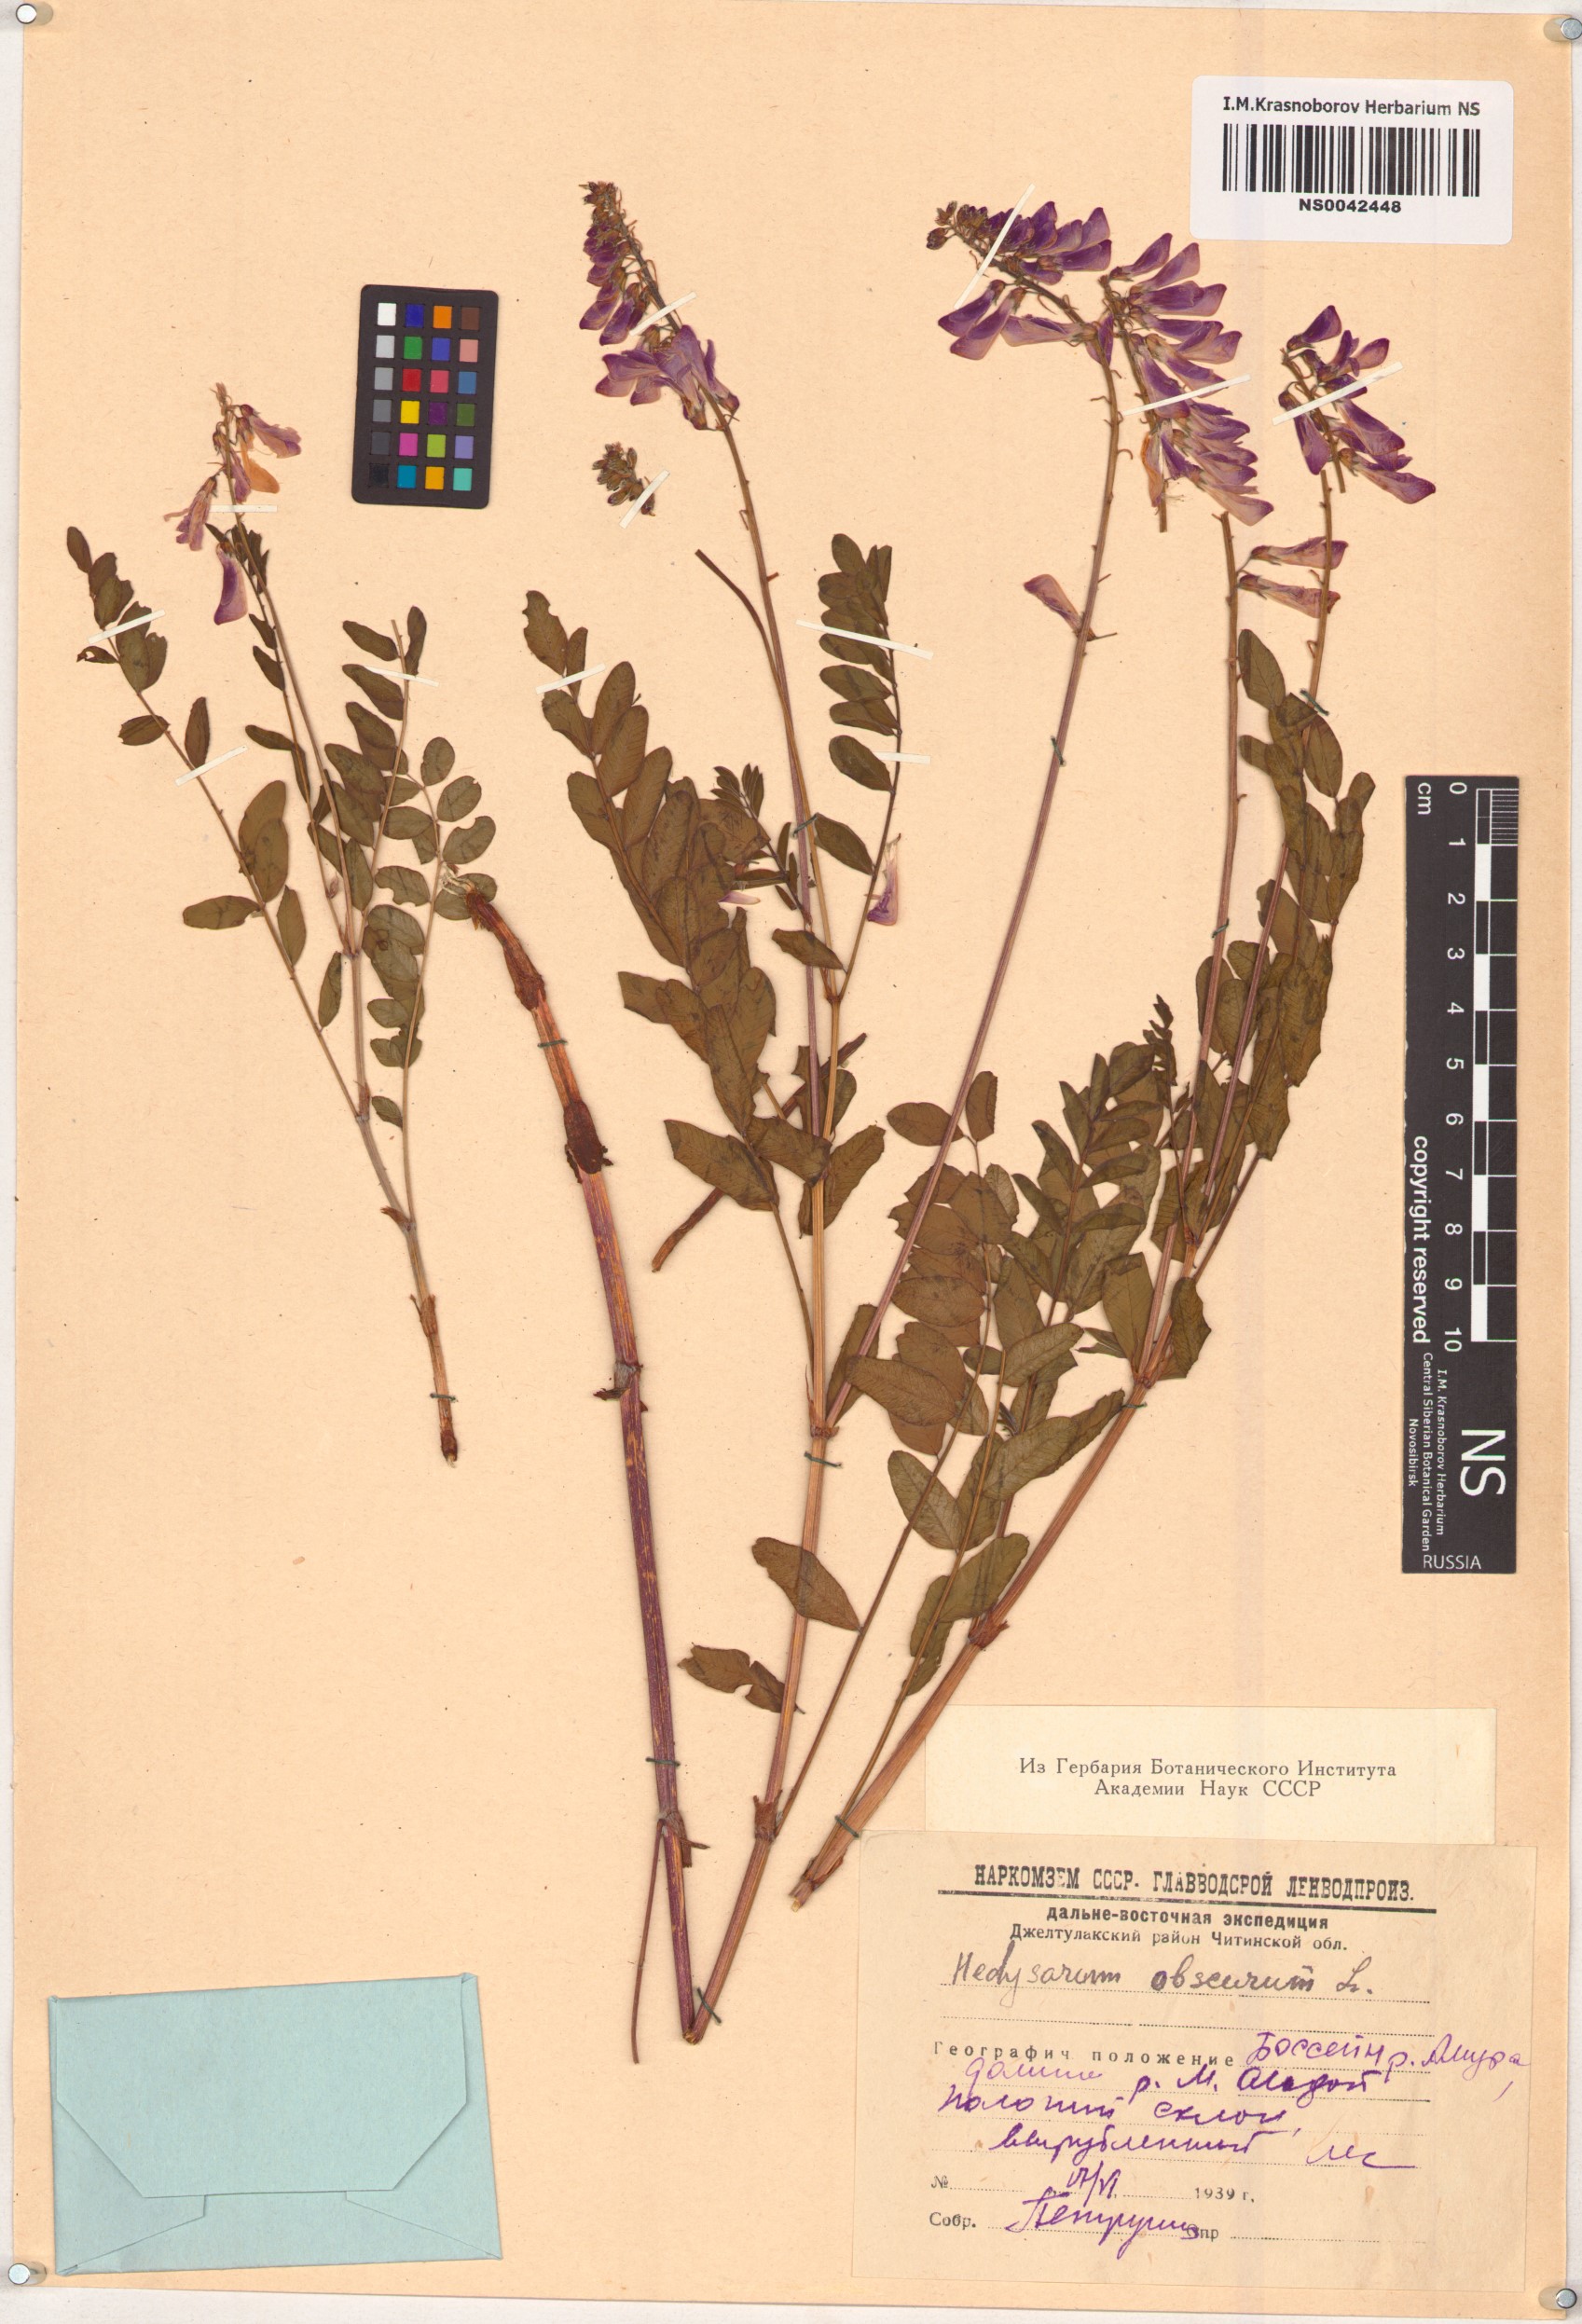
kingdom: Plantae
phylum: Tracheophyta
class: Magnoliopsida
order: Fabales
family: Fabaceae
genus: Hedysarum
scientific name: Hedysarum hedysaroides
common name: Alpine french-honeysuckle
